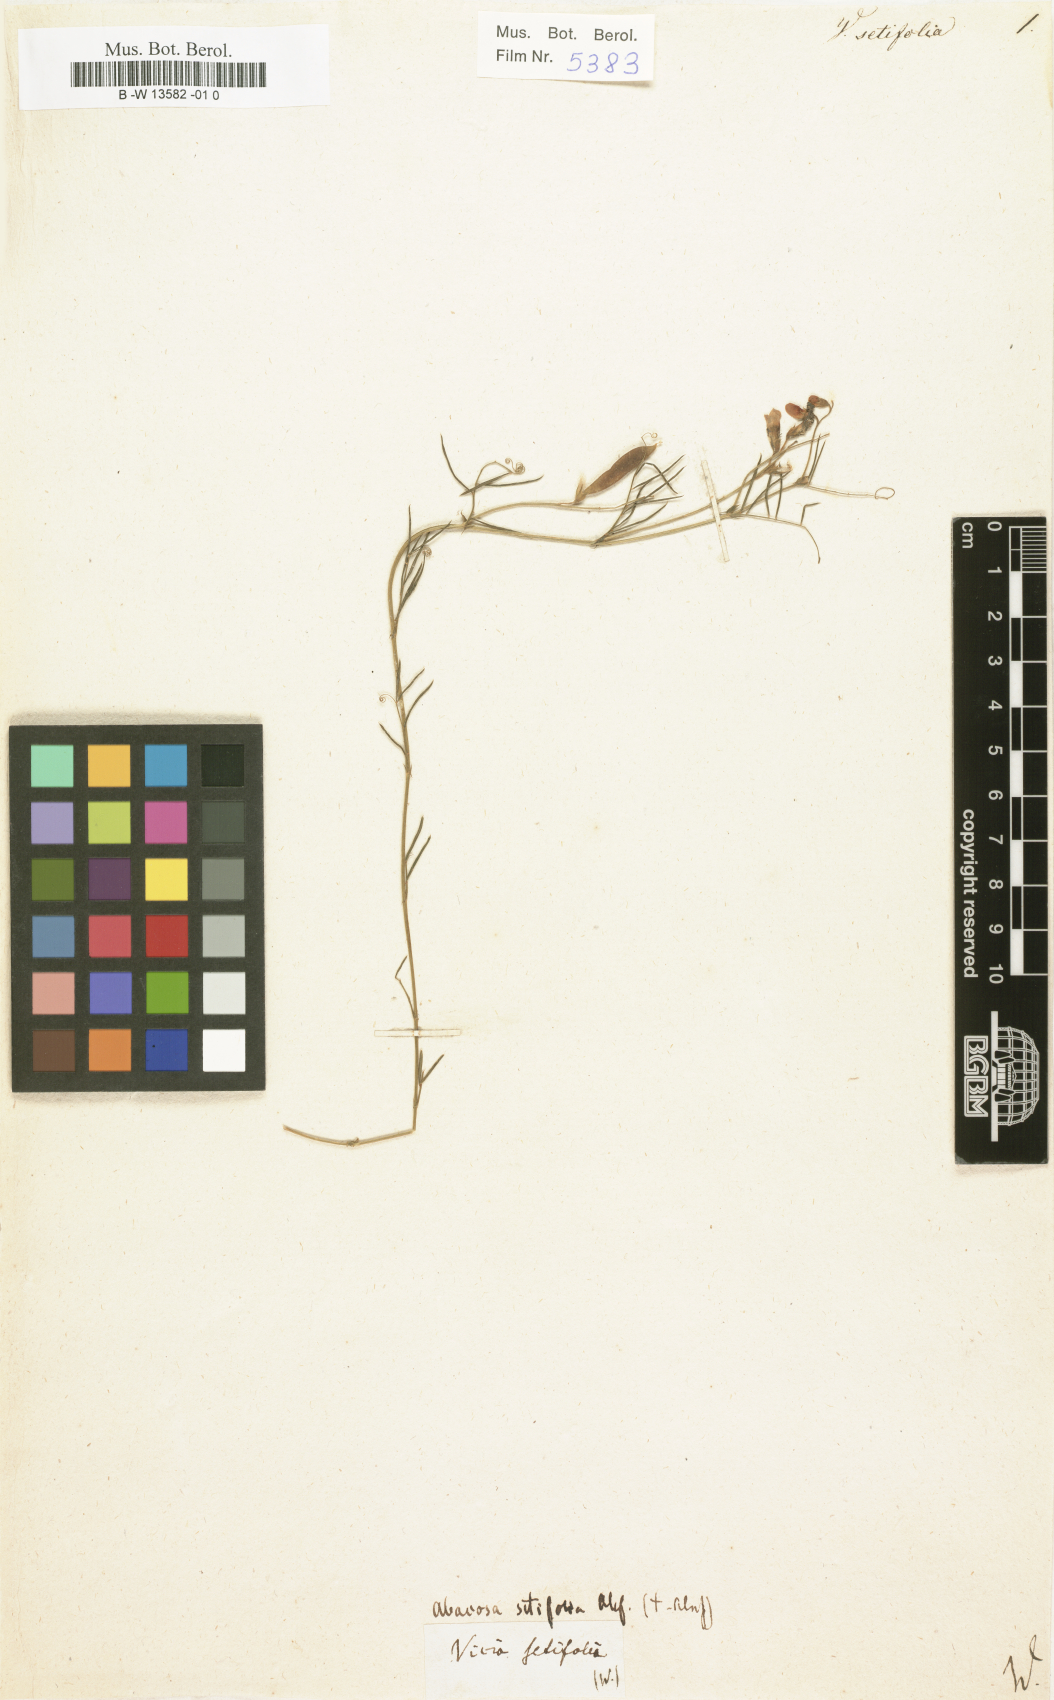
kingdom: Plantae
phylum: Tracheophyta
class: Magnoliopsida
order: Fabales
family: Fabaceae
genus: Vicia
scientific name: Vicia setifolia
